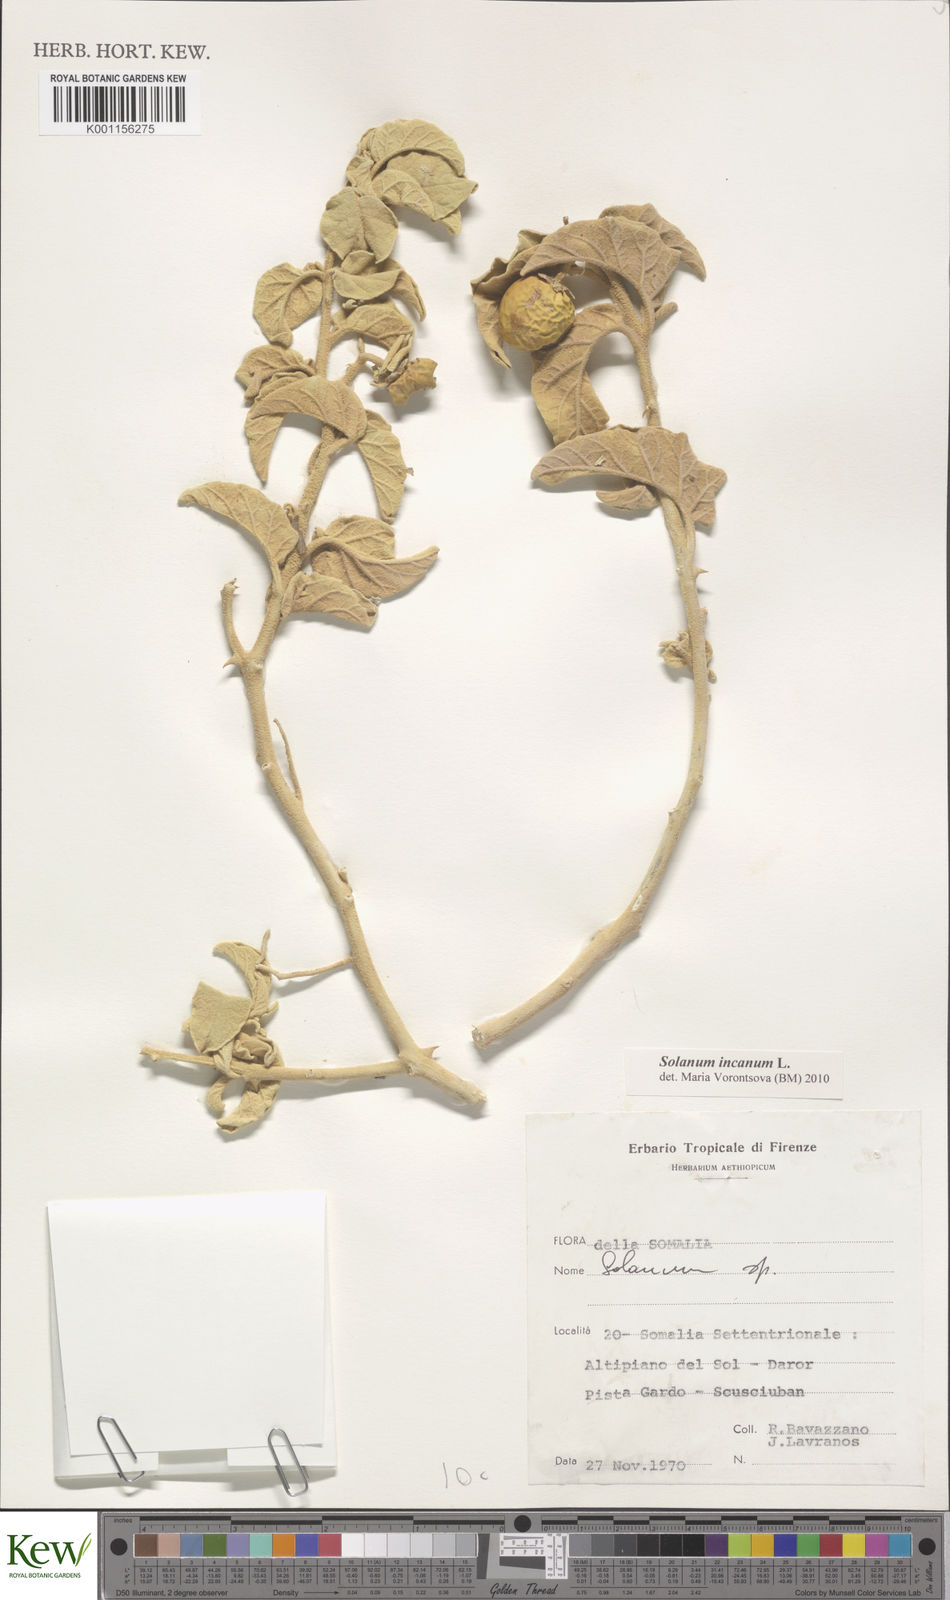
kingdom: Plantae
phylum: Tracheophyta
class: Magnoliopsida
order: Solanales
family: Solanaceae
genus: Solanum
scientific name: Solanum incanum
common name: Bitter apple
